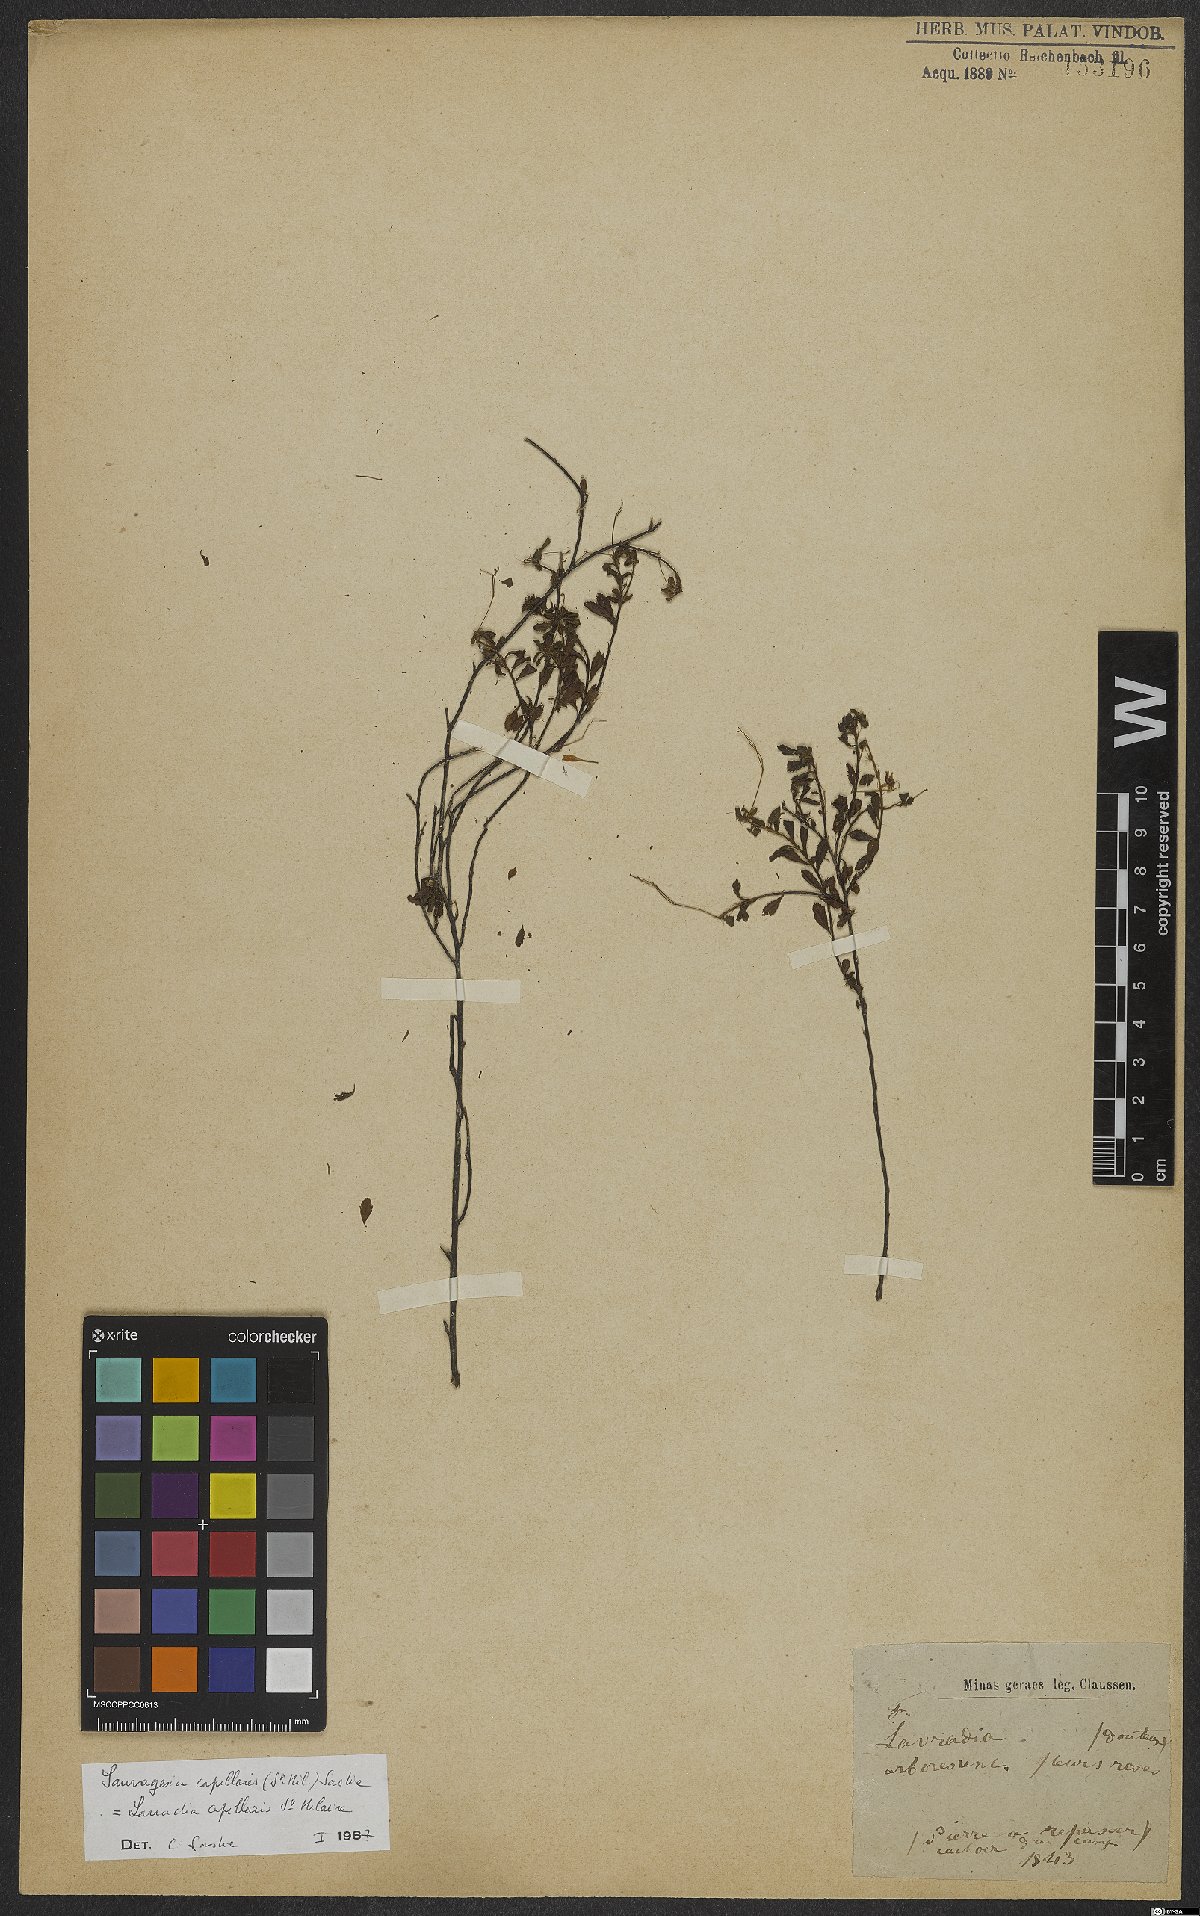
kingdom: Plantae
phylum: Tracheophyta
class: Magnoliopsida
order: Malpighiales
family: Ochnaceae
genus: Sauvagesia
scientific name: Sauvagesia capillaris
